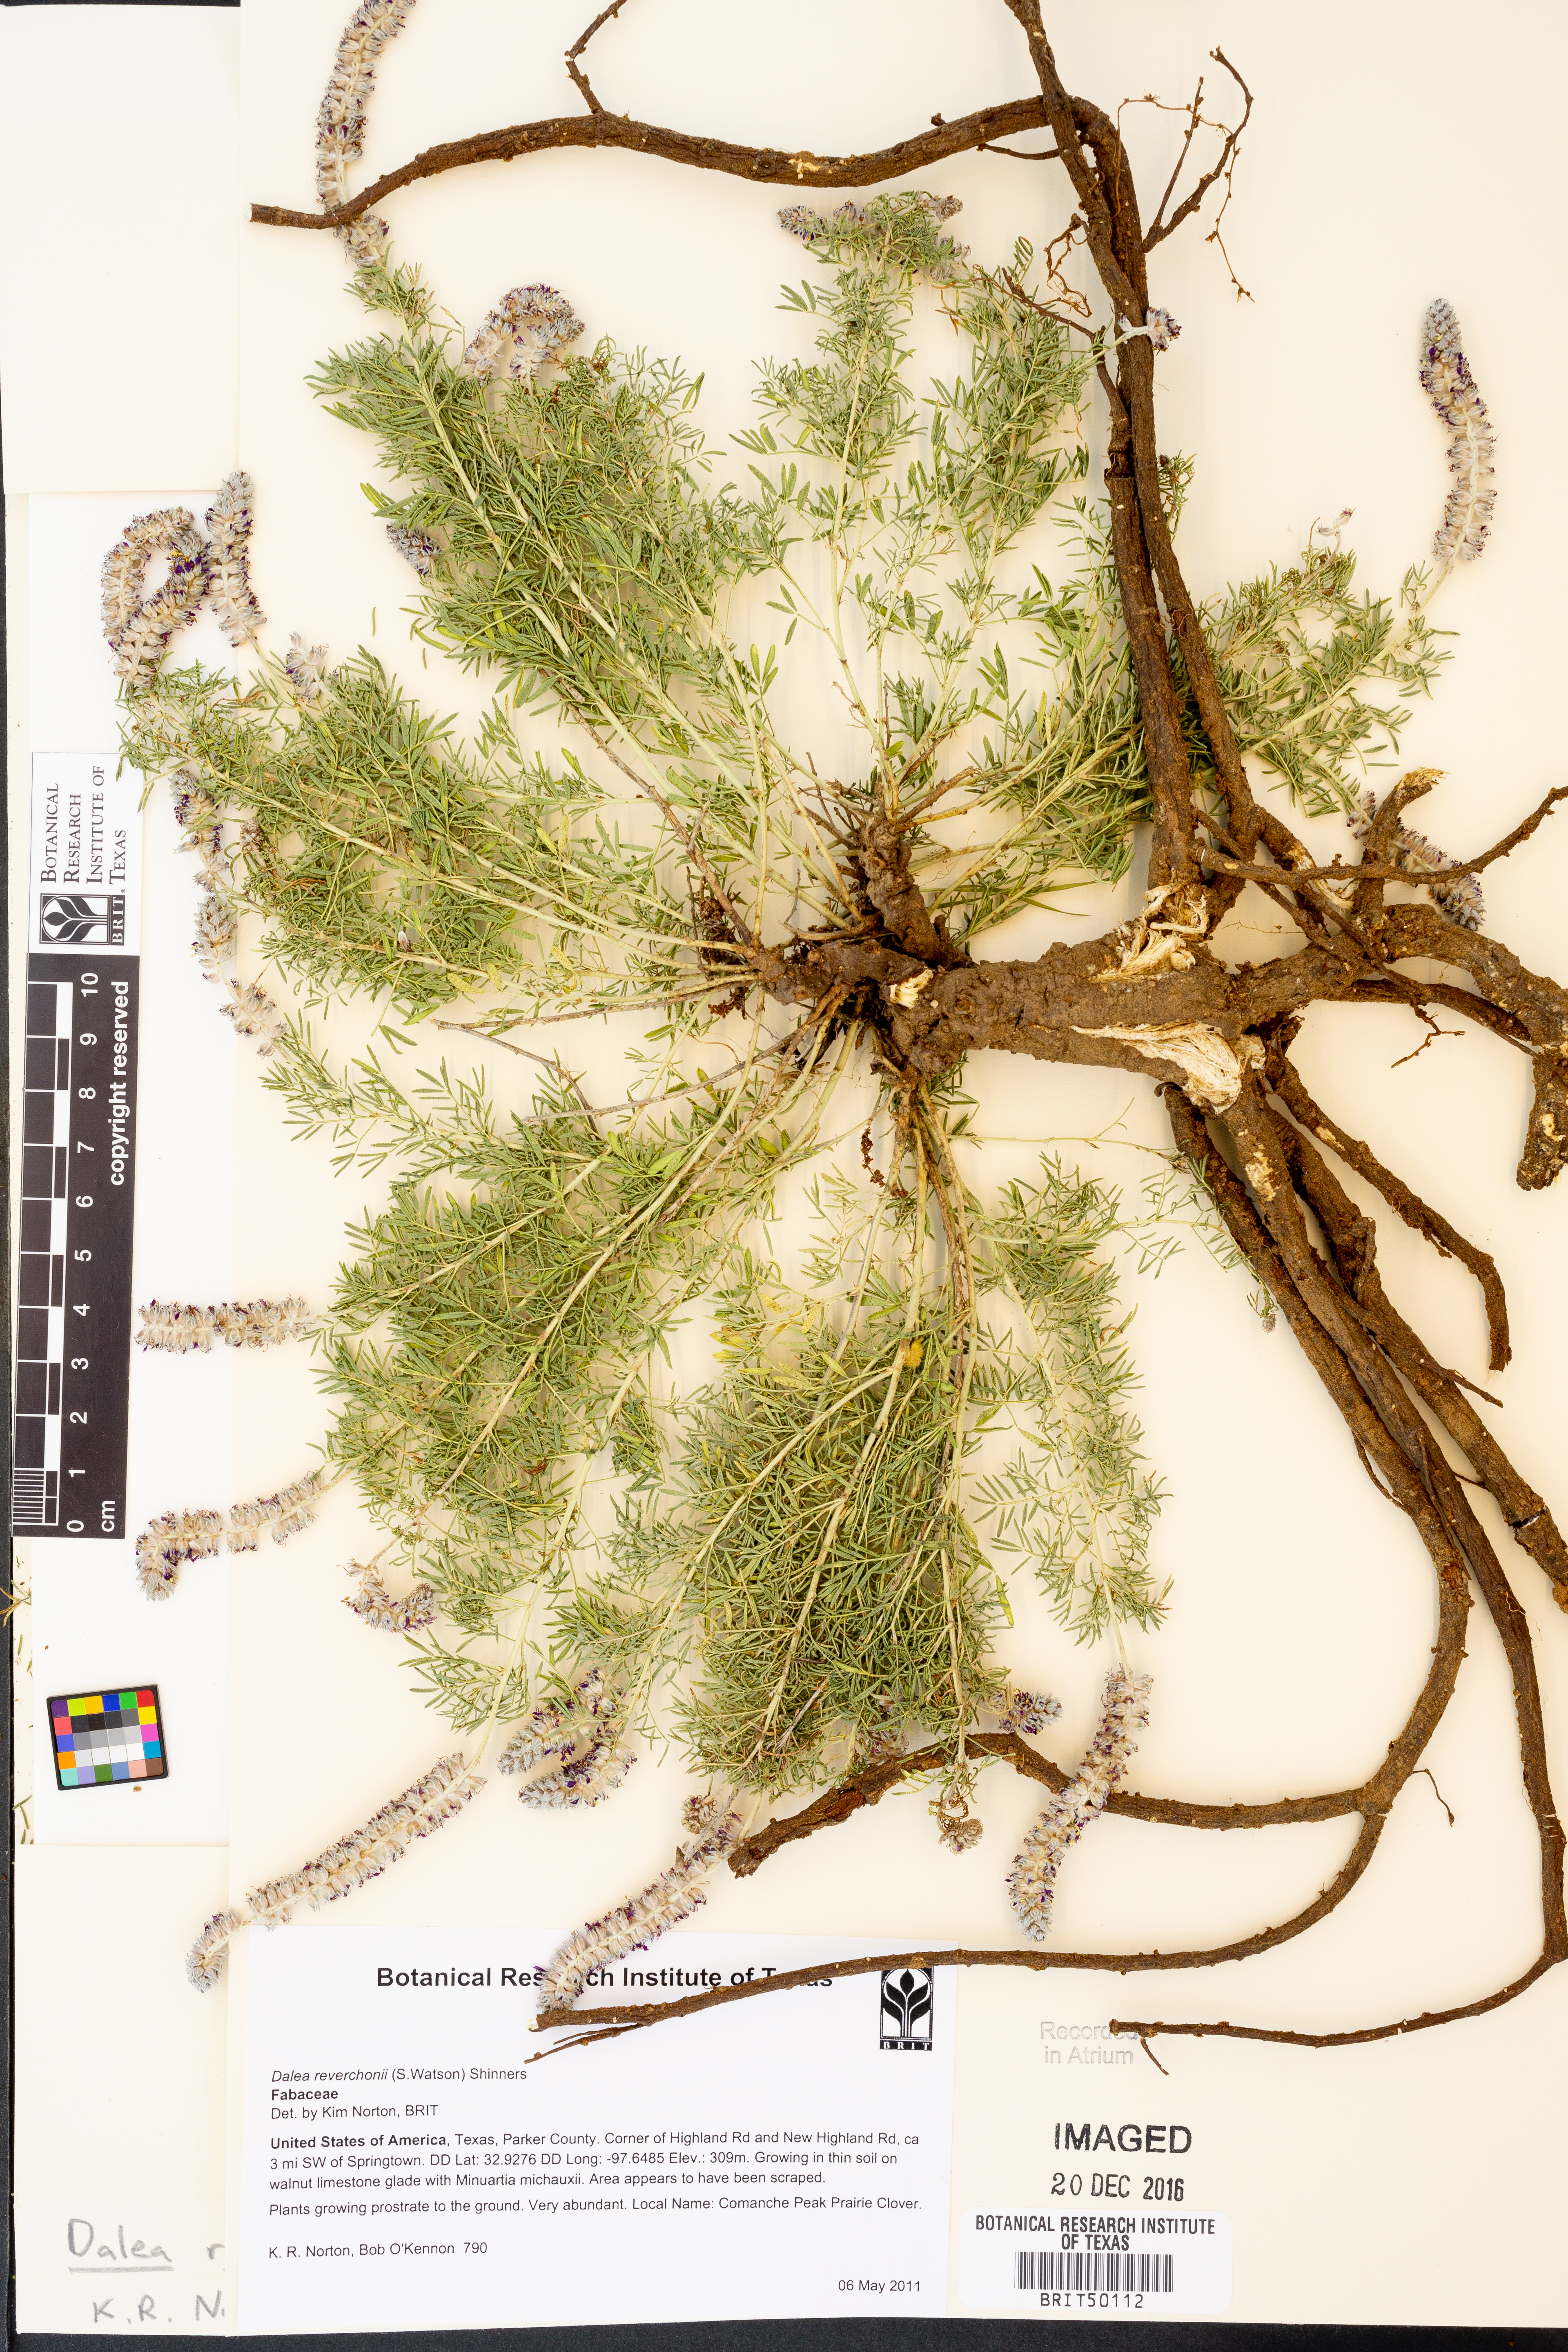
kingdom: Plantae
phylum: Tracheophyta
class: Magnoliopsida
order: Fabales
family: Fabaceae
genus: Dalea
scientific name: Dalea reverchonii
